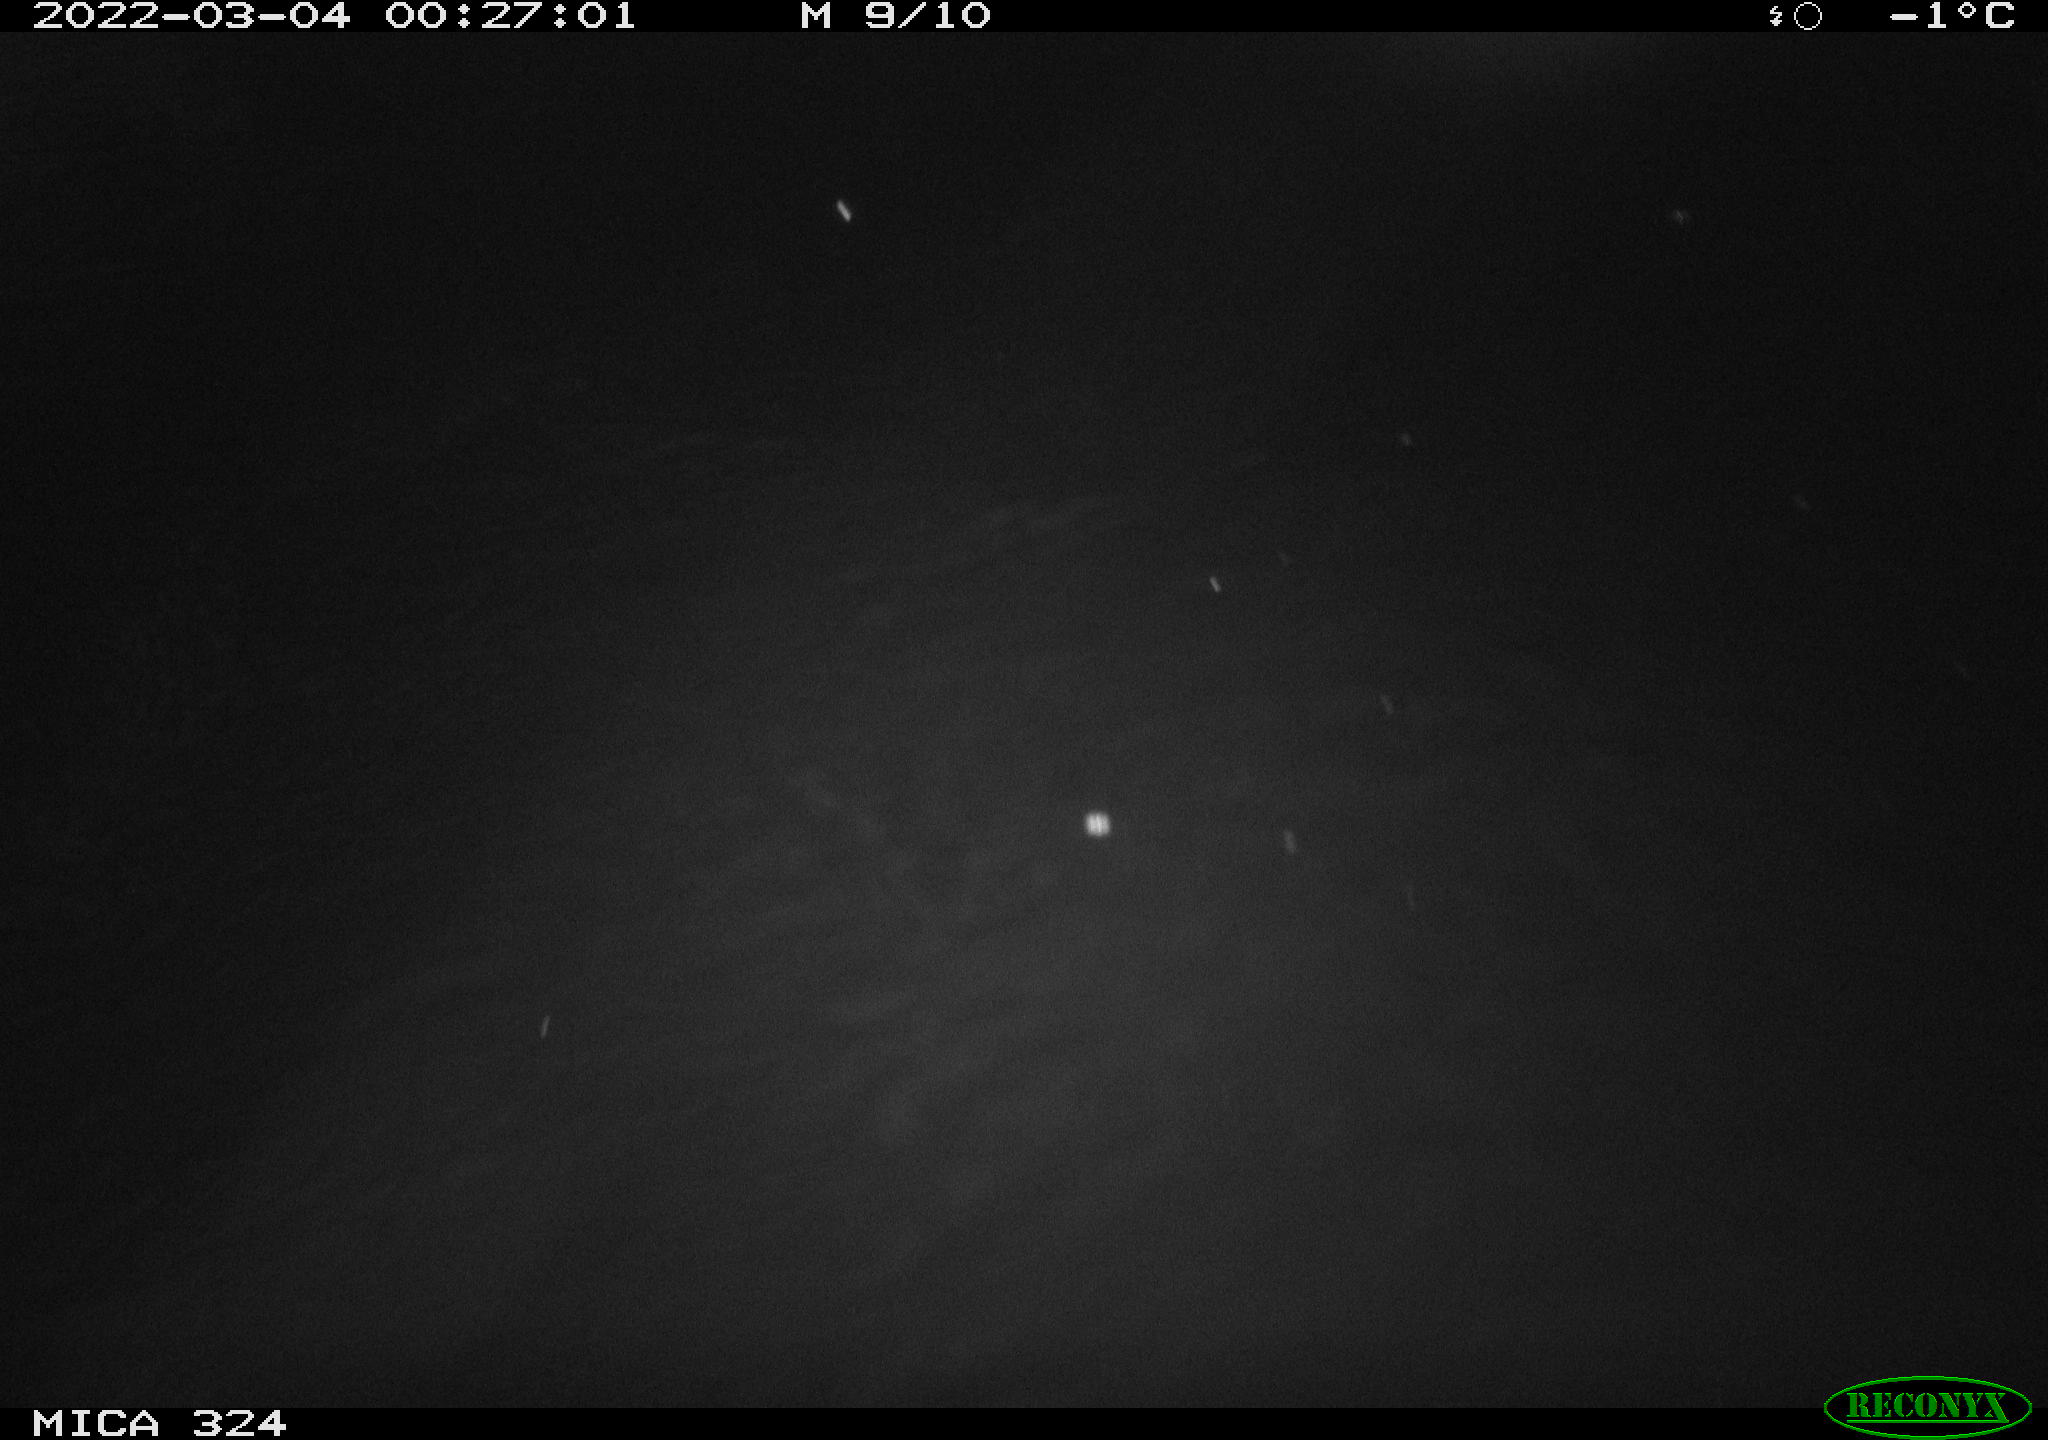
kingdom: Animalia
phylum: Chordata
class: Mammalia
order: Rodentia
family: Cricetidae
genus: Ondatra
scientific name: Ondatra zibethicus
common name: Muskrat
